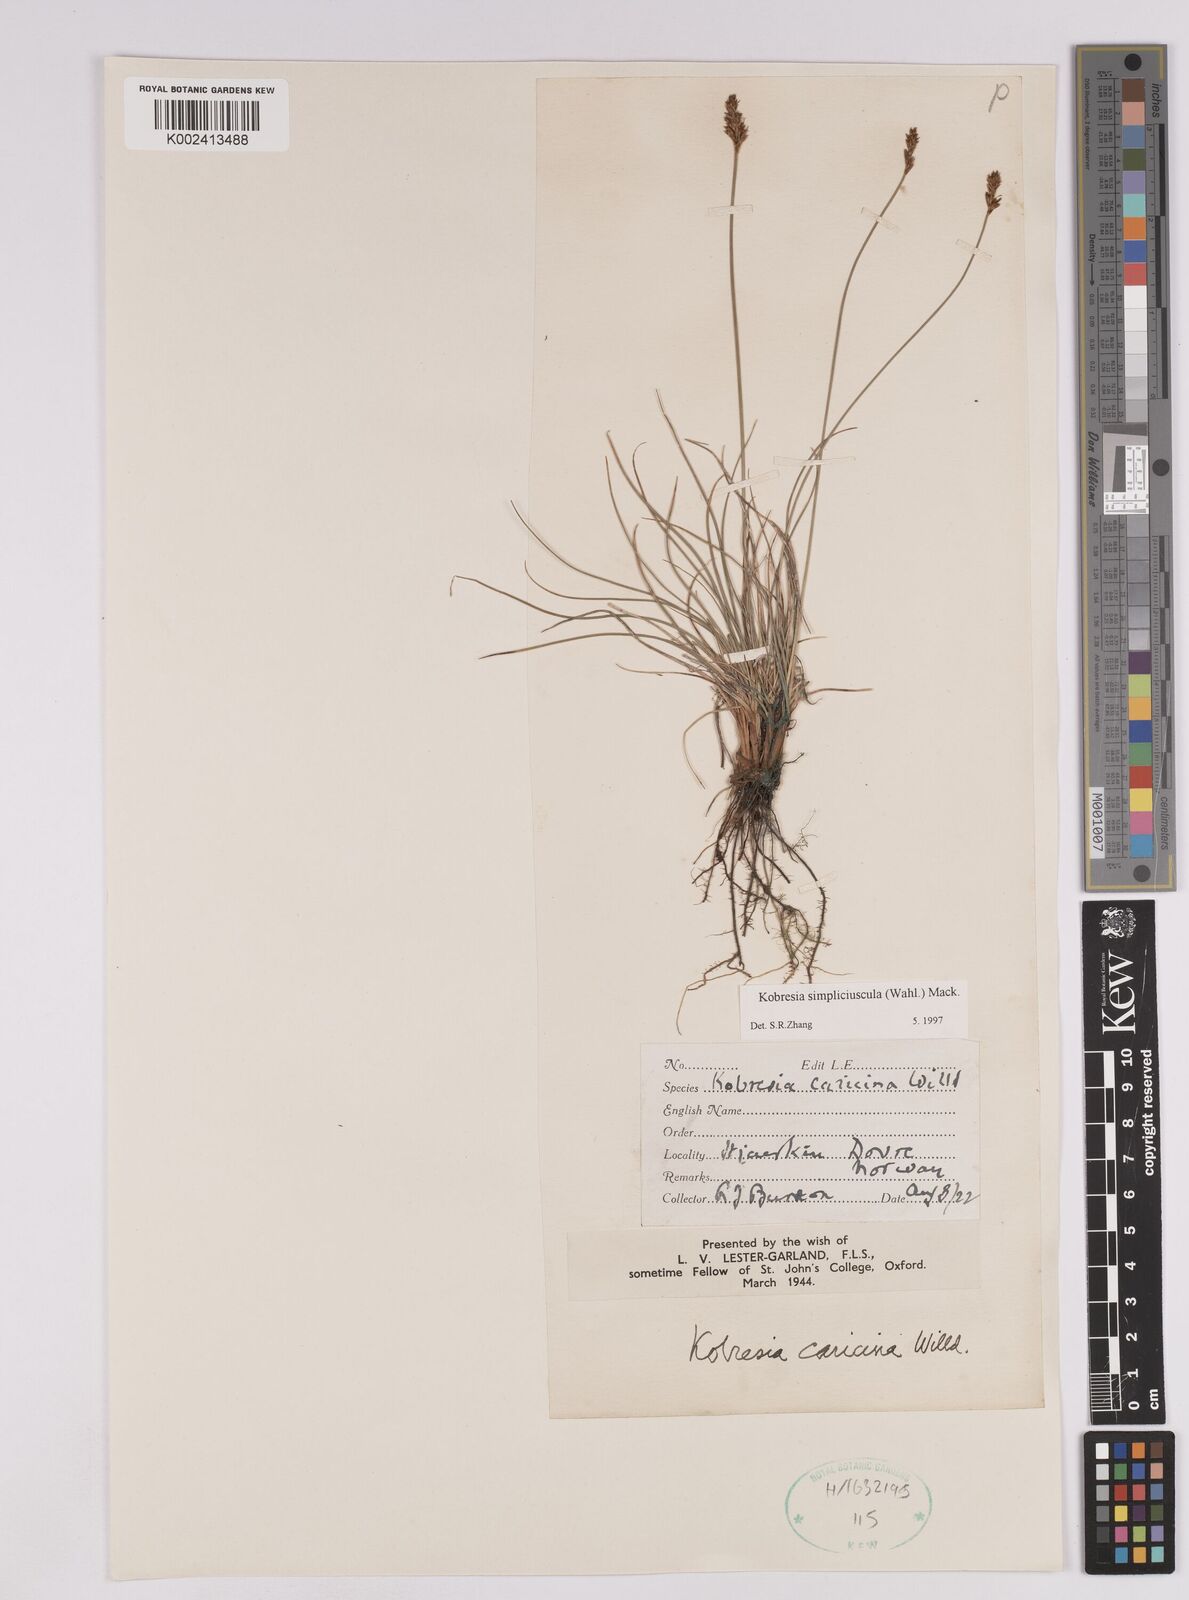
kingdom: Plantae
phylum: Tracheophyta
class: Liliopsida
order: Poales
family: Cyperaceae
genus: Carex
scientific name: Carex simpliciuscula
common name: Simple bog sedge
